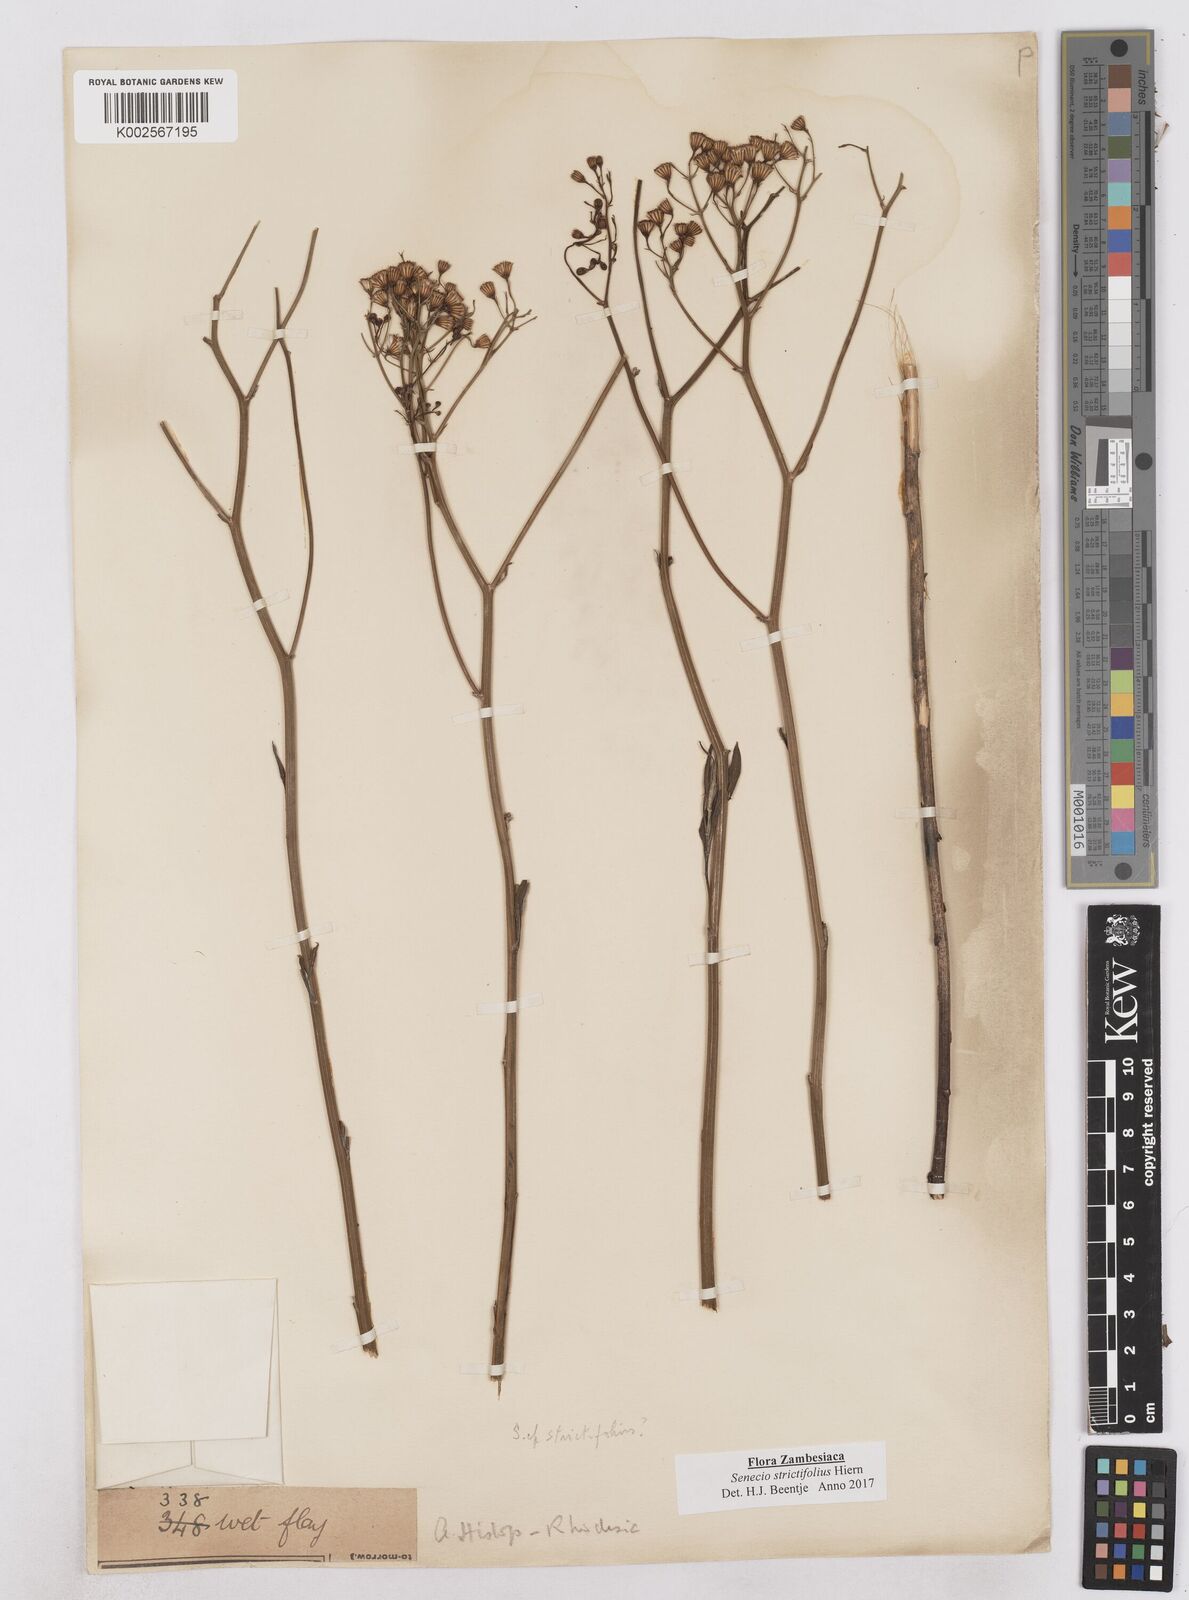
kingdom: Plantae
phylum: Tracheophyta
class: Magnoliopsida
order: Asterales
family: Asteraceae
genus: Senecio
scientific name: Senecio strictifolius
